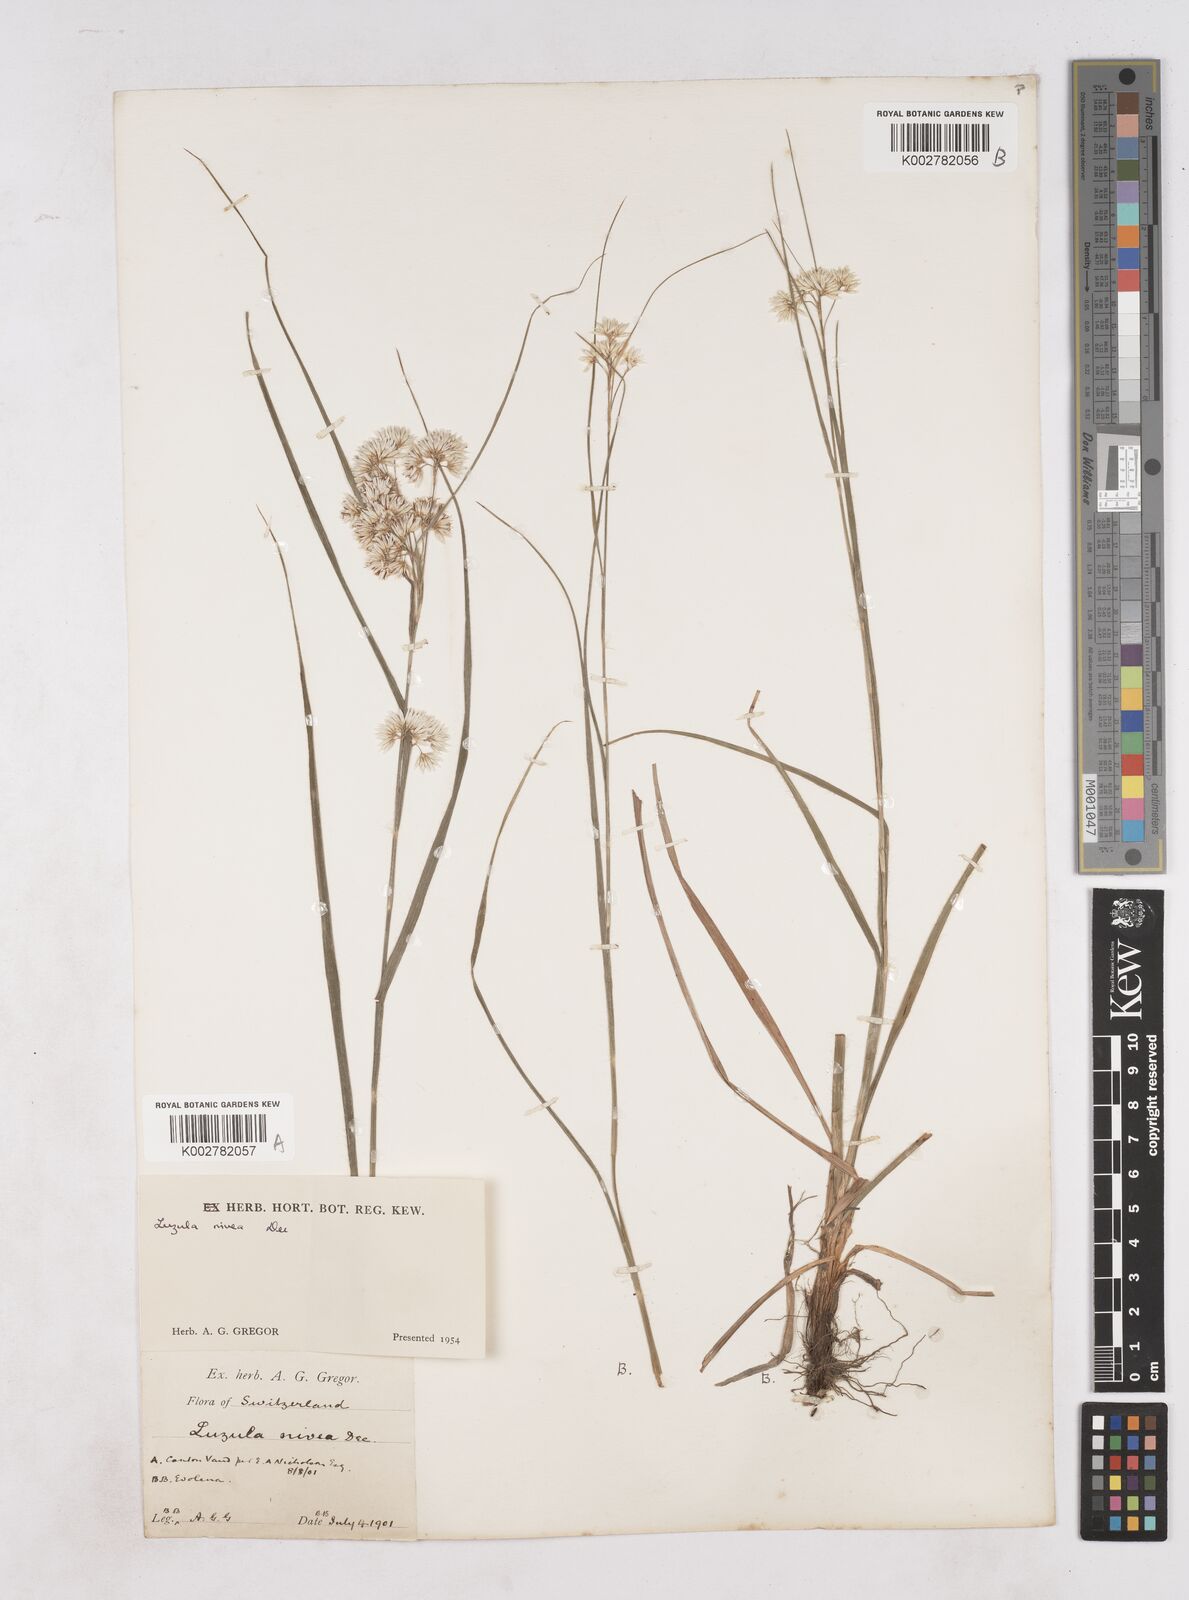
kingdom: Plantae
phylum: Tracheophyta
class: Liliopsida
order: Poales
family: Juncaceae
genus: Luzula
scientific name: Luzula nivea
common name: Snow-white wood-rush
